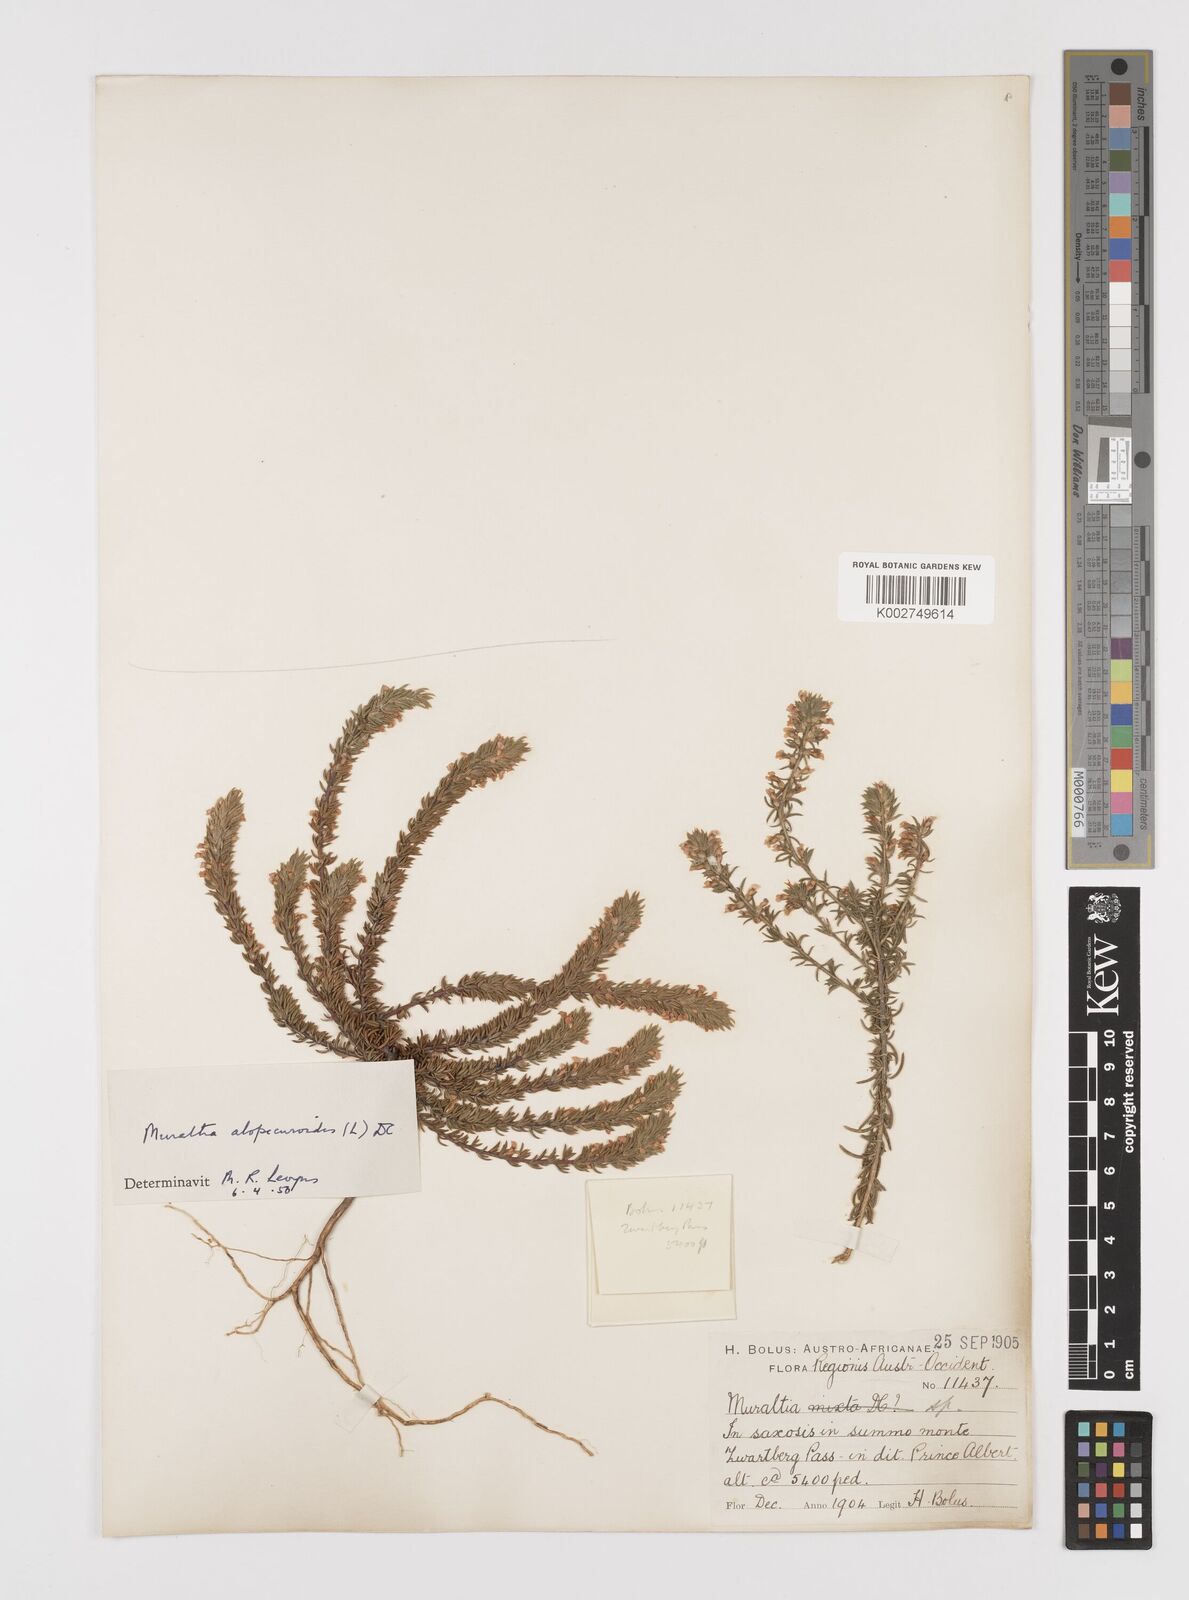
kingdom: Plantae
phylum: Tracheophyta
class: Magnoliopsida
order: Fabales
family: Polygalaceae
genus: Muraltia
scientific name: Muraltia alopecuroides
